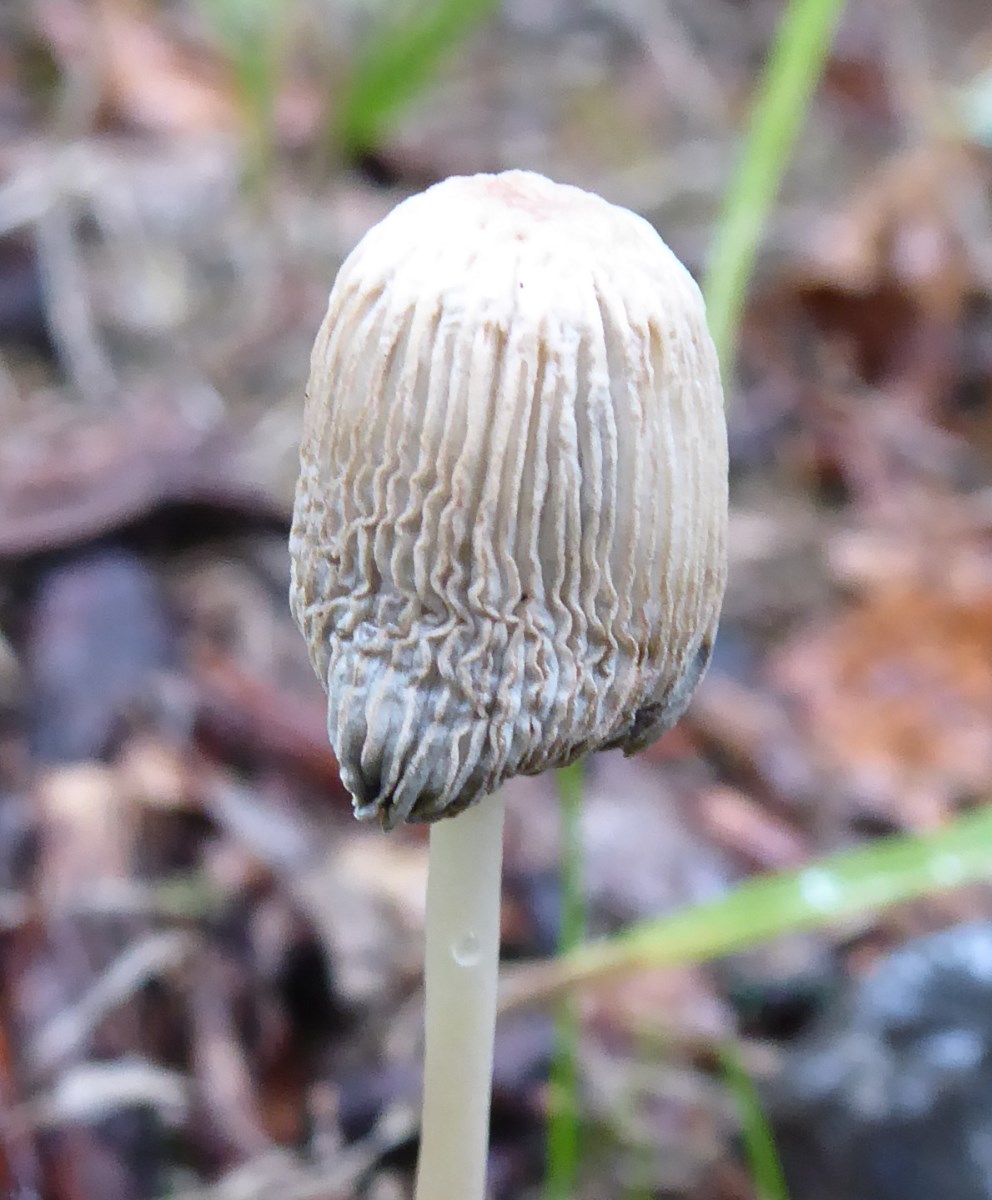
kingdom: Fungi
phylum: Basidiomycota
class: Agaricomycetes
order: Agaricales
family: Psathyrellaceae
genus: Parasola
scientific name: Parasola
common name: hjulhat
